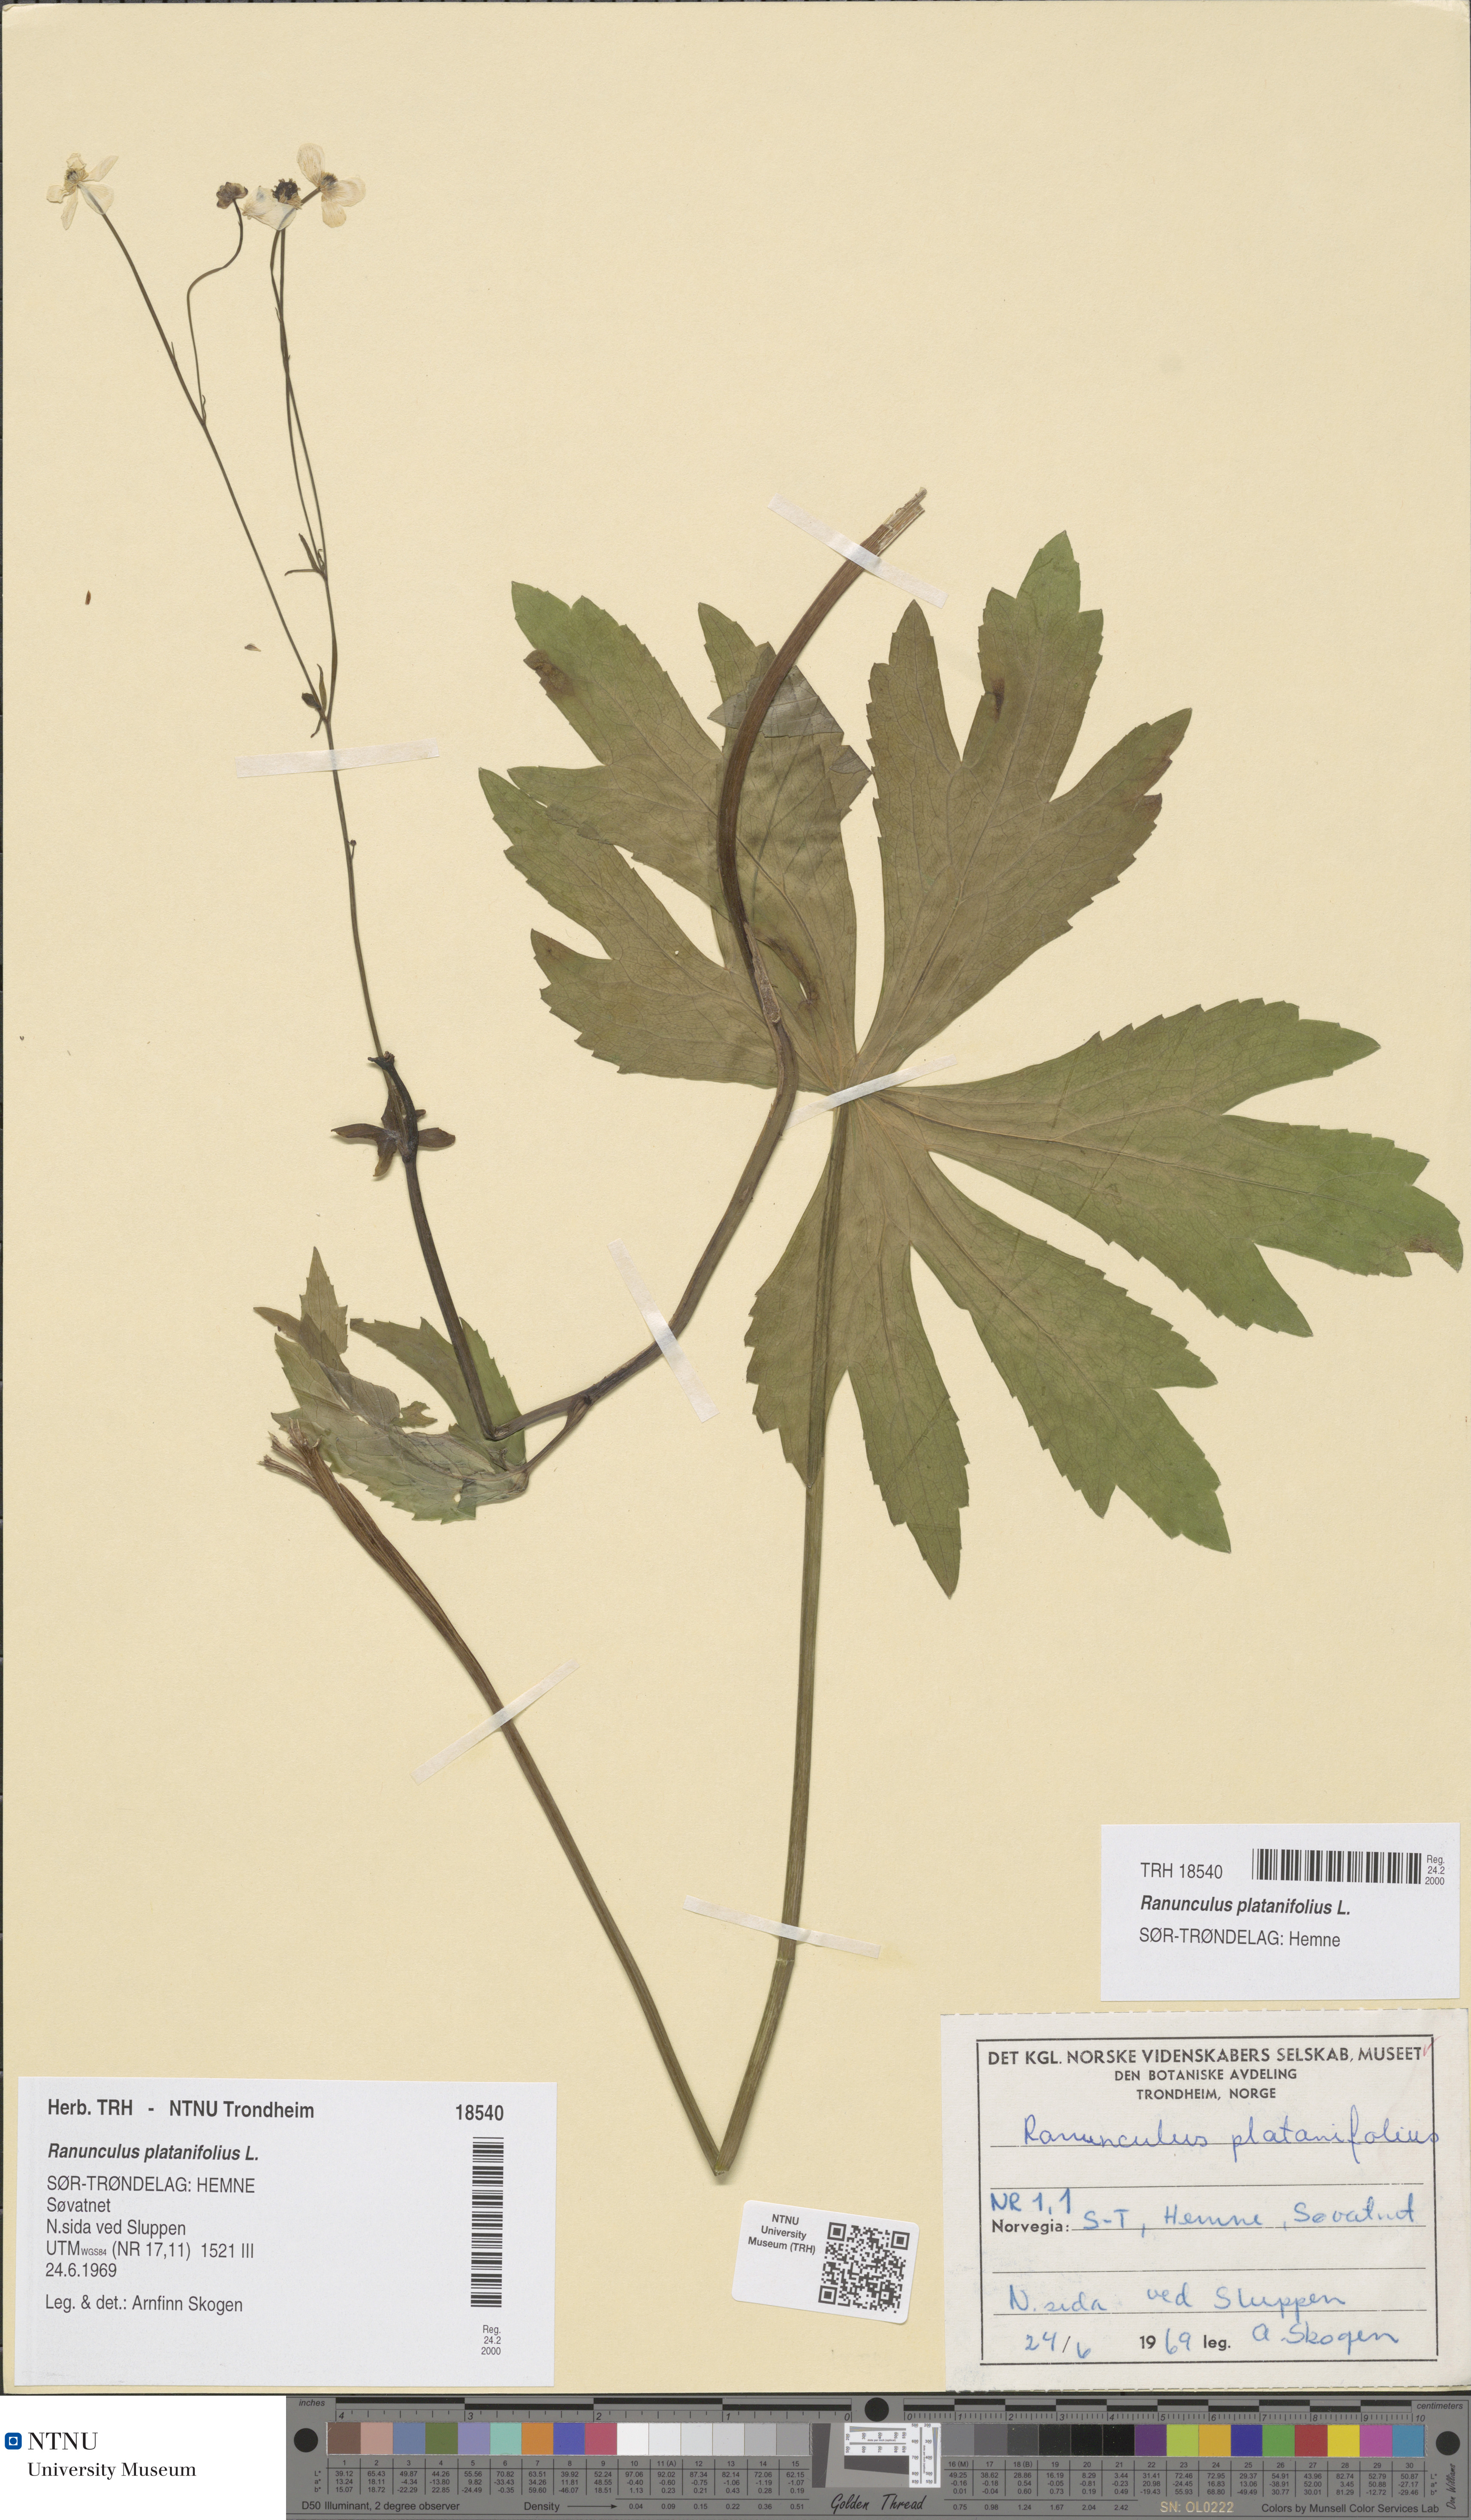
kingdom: Plantae
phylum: Tracheophyta
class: Magnoliopsida
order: Ranunculales
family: Ranunculaceae
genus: Ranunculus
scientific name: Ranunculus platanifolius
